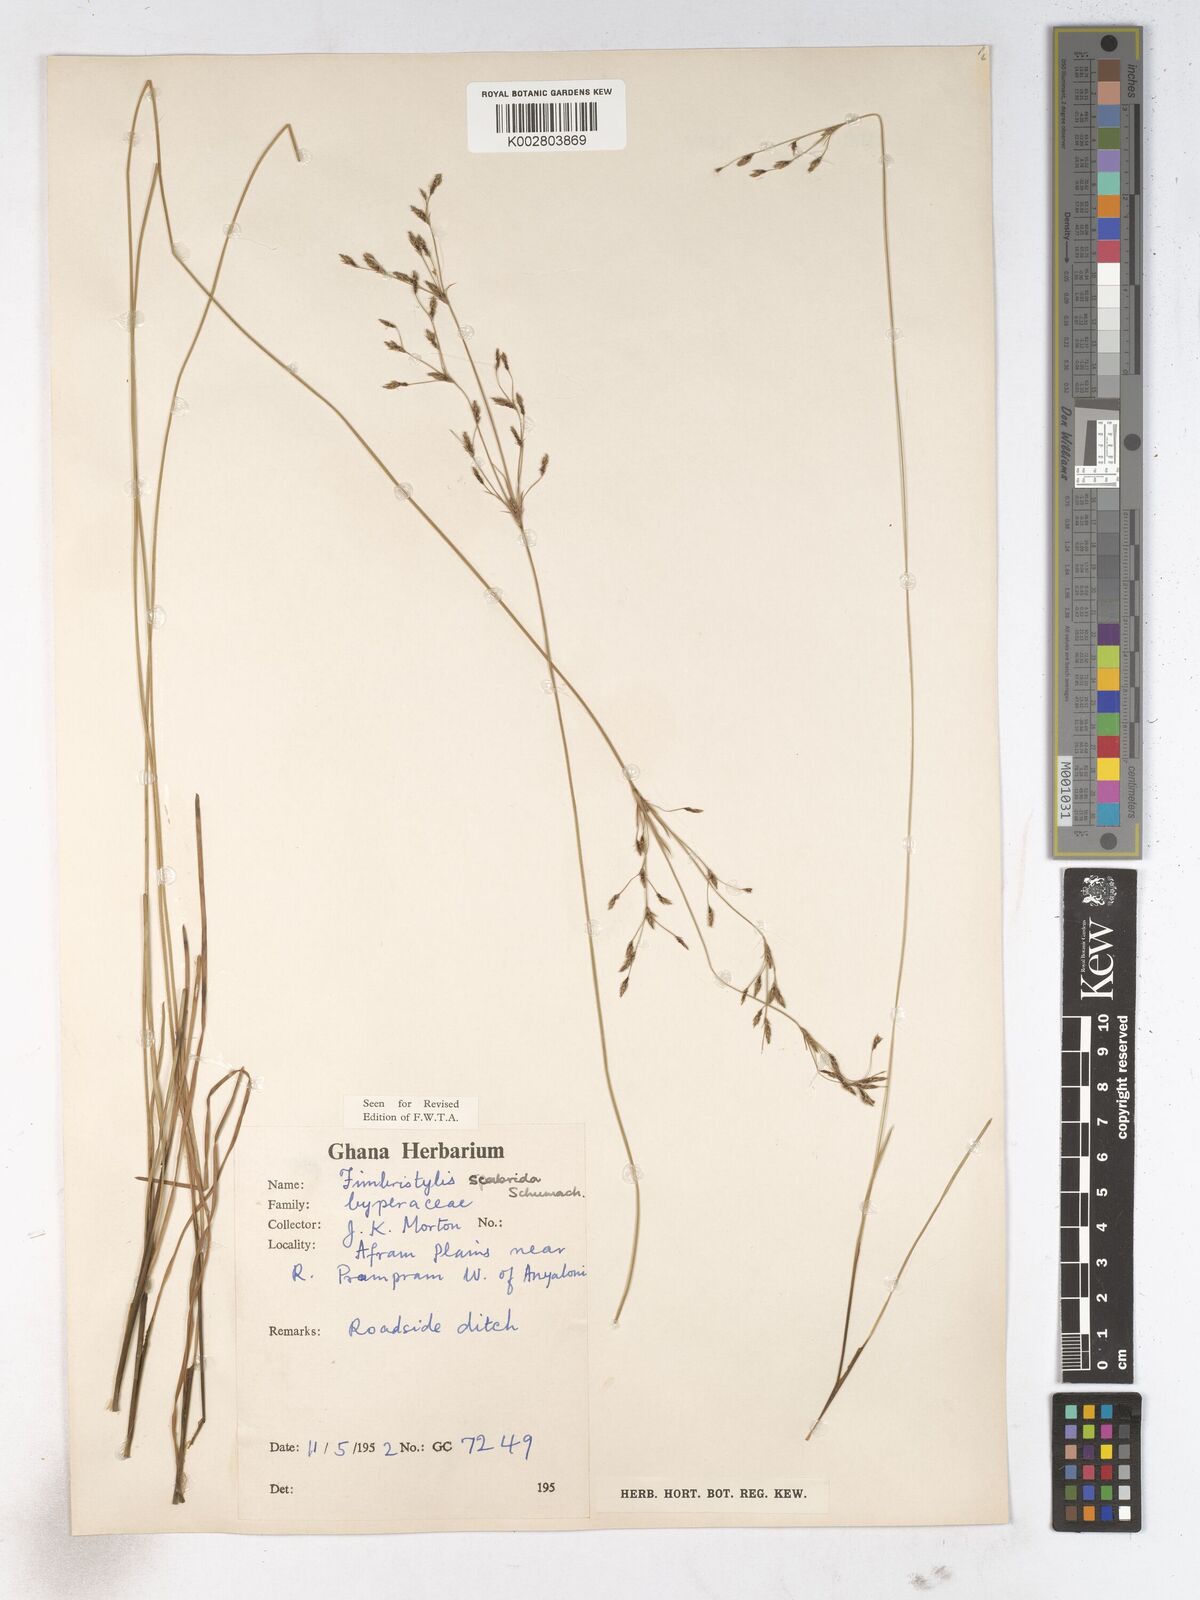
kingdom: Plantae
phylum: Tracheophyta
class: Liliopsida
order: Poales
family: Cyperaceae
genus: Fimbristylis
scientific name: Fimbristylis scabrida
